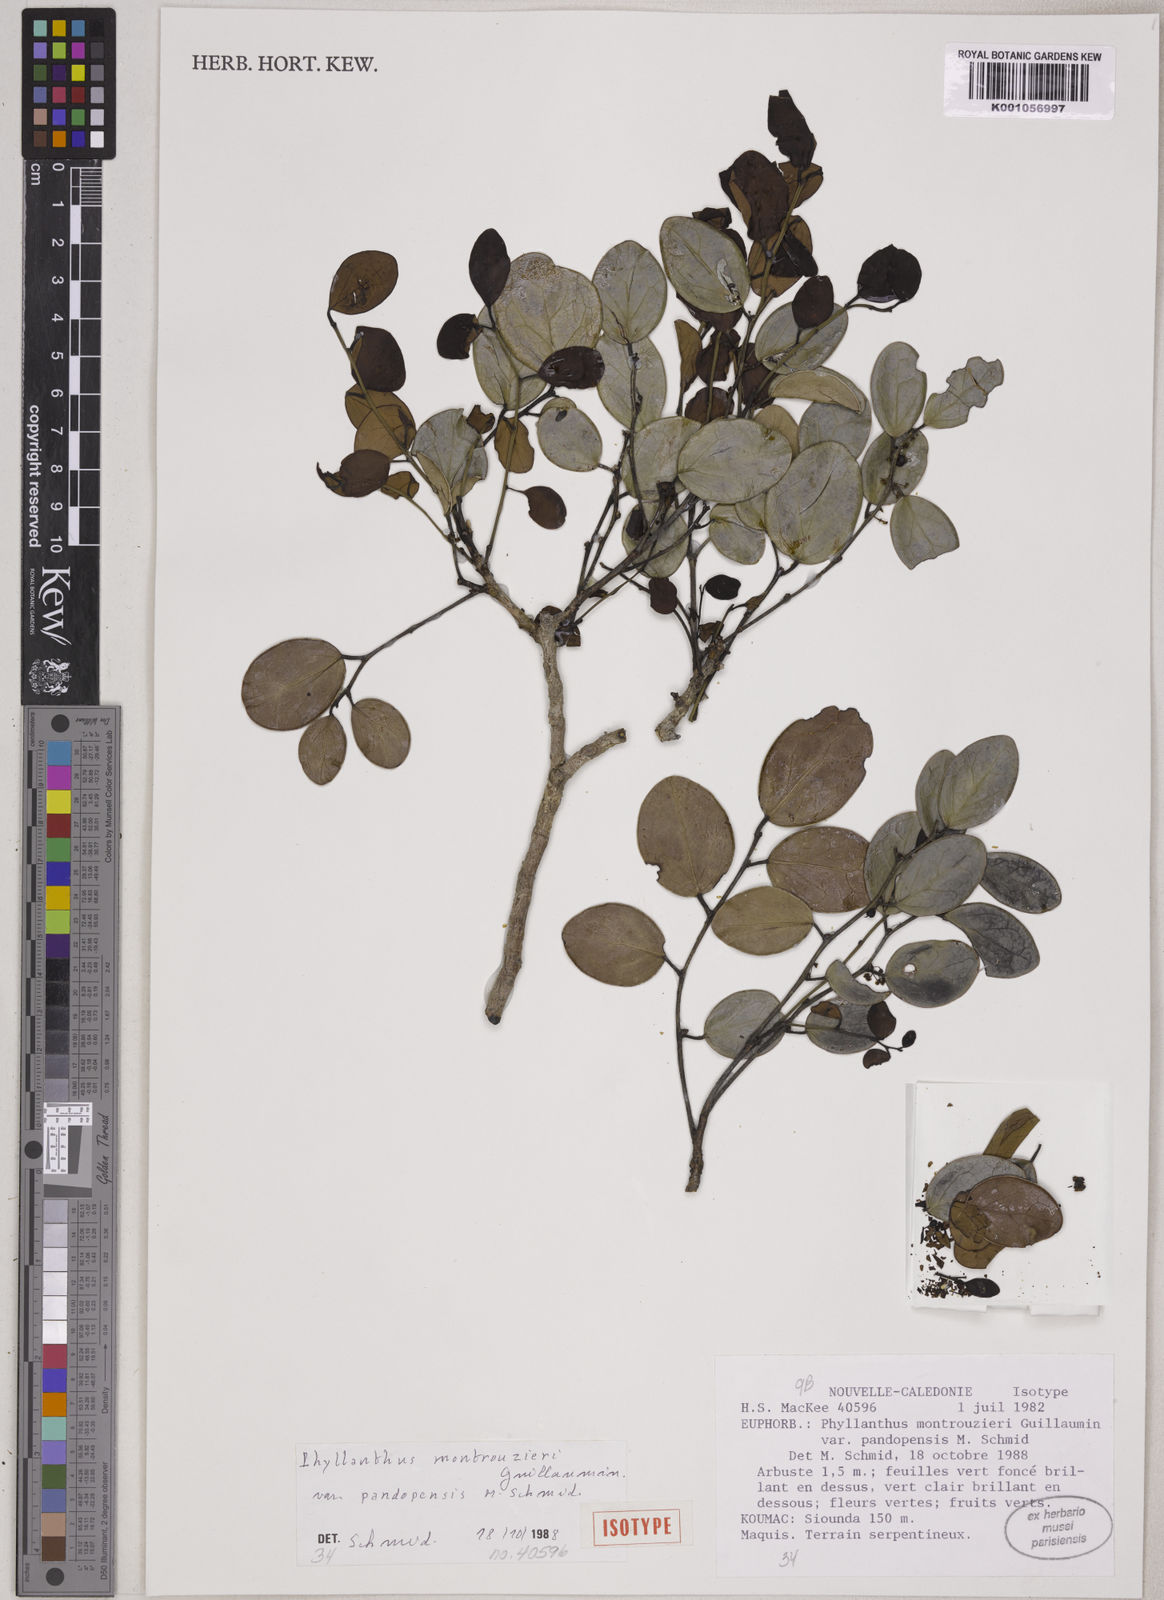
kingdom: Plantae
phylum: Tracheophyta
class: Magnoliopsida
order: Malpighiales
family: Phyllanthaceae
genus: Phyllanthus
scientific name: Phyllanthus montrouzieri
